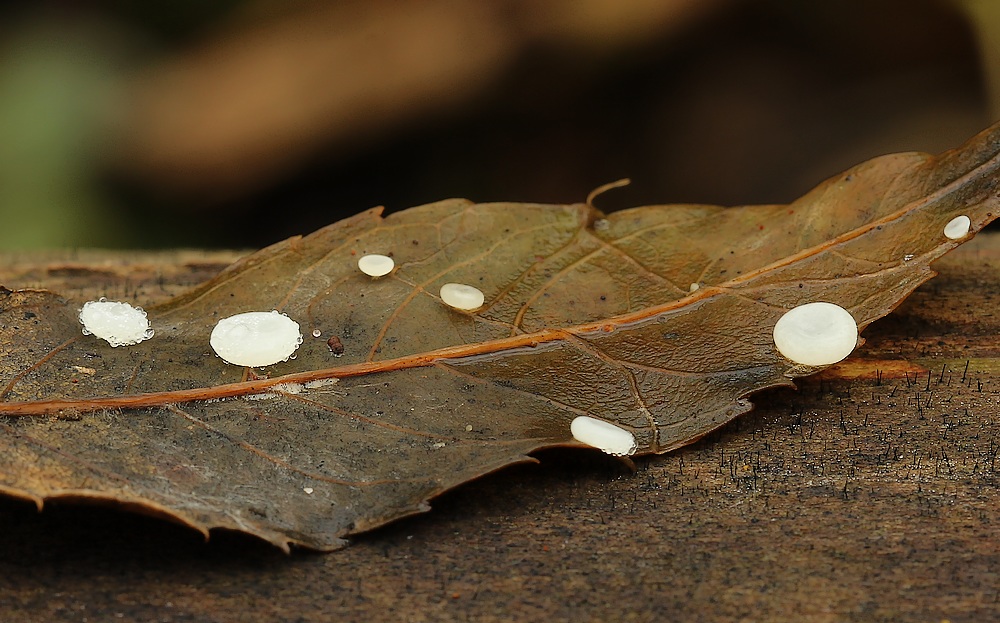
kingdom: Fungi
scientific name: Fungi
